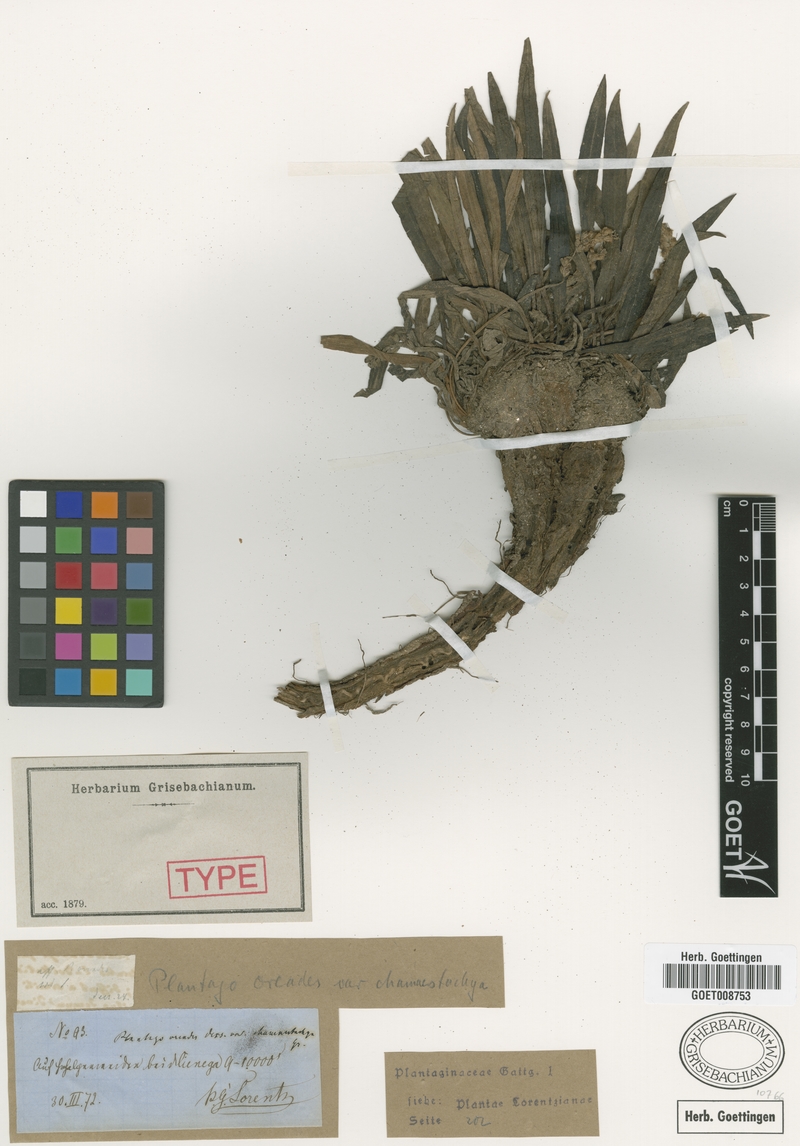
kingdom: Plantae
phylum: Tracheophyta
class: Magnoliopsida
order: Lamiales
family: Plantaginaceae
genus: Plantago
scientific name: Plantago argentina
